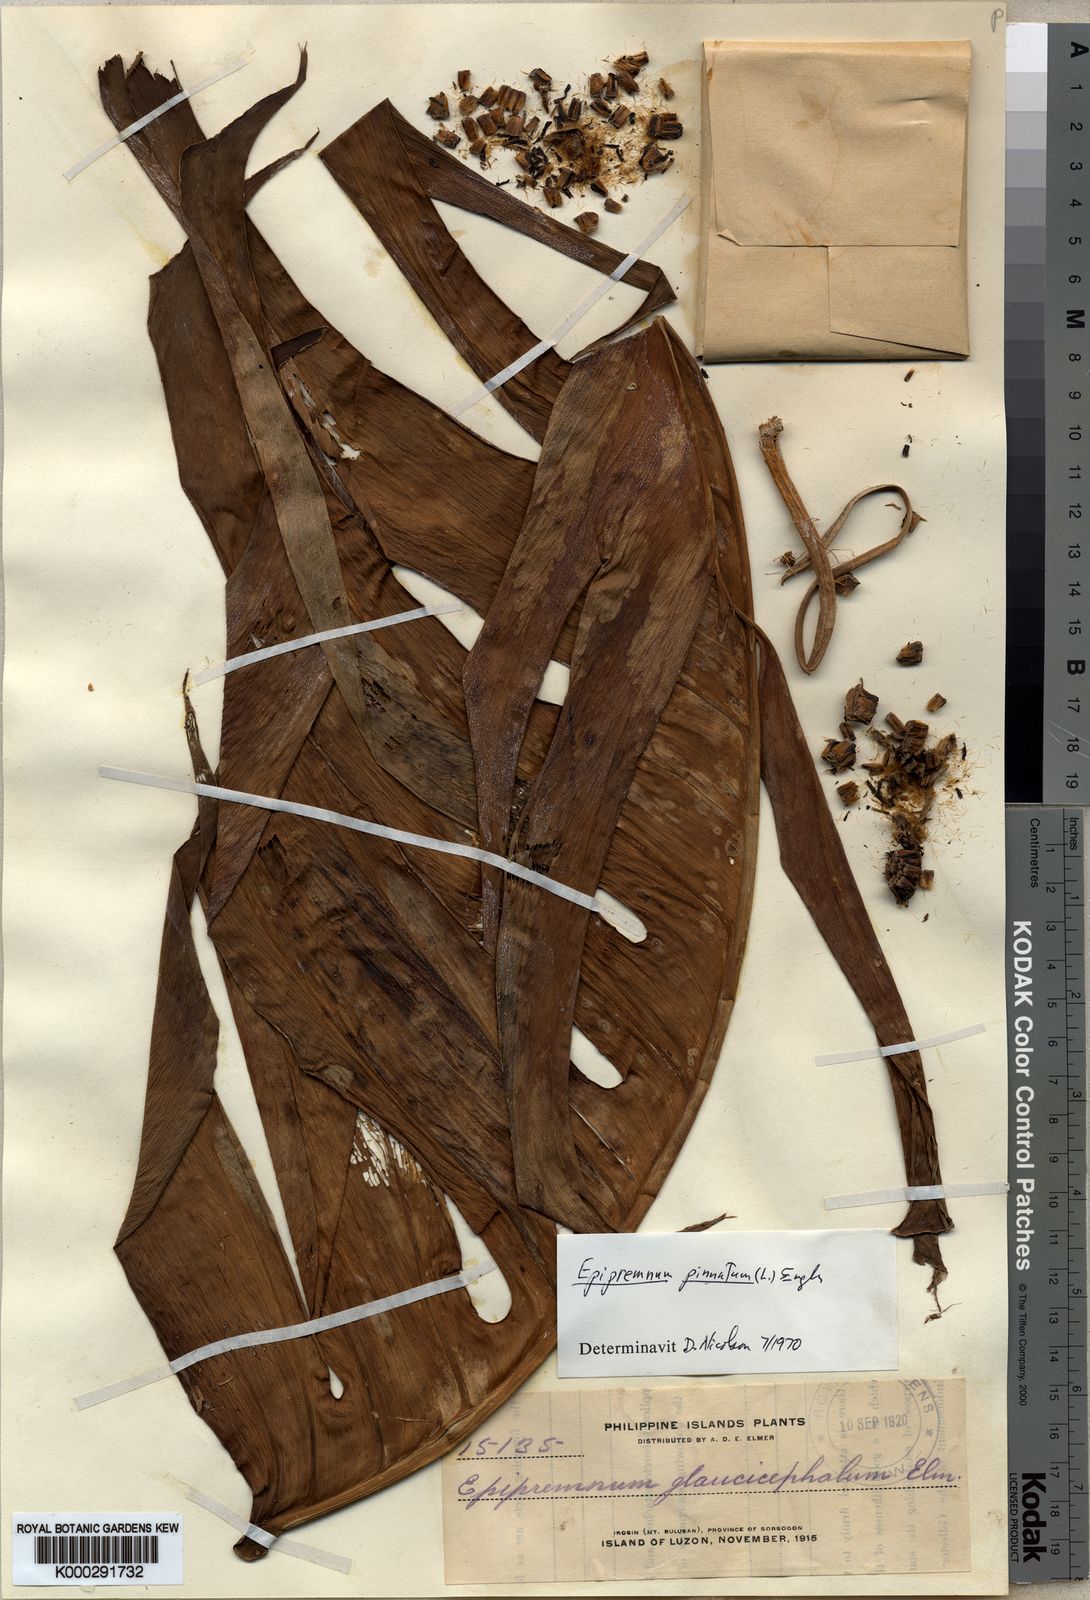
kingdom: Plantae
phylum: Tracheophyta
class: Liliopsida
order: Alismatales
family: Araceae
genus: Epipremnum
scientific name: Epipremnum pinnatum
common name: Centipede tongavine
